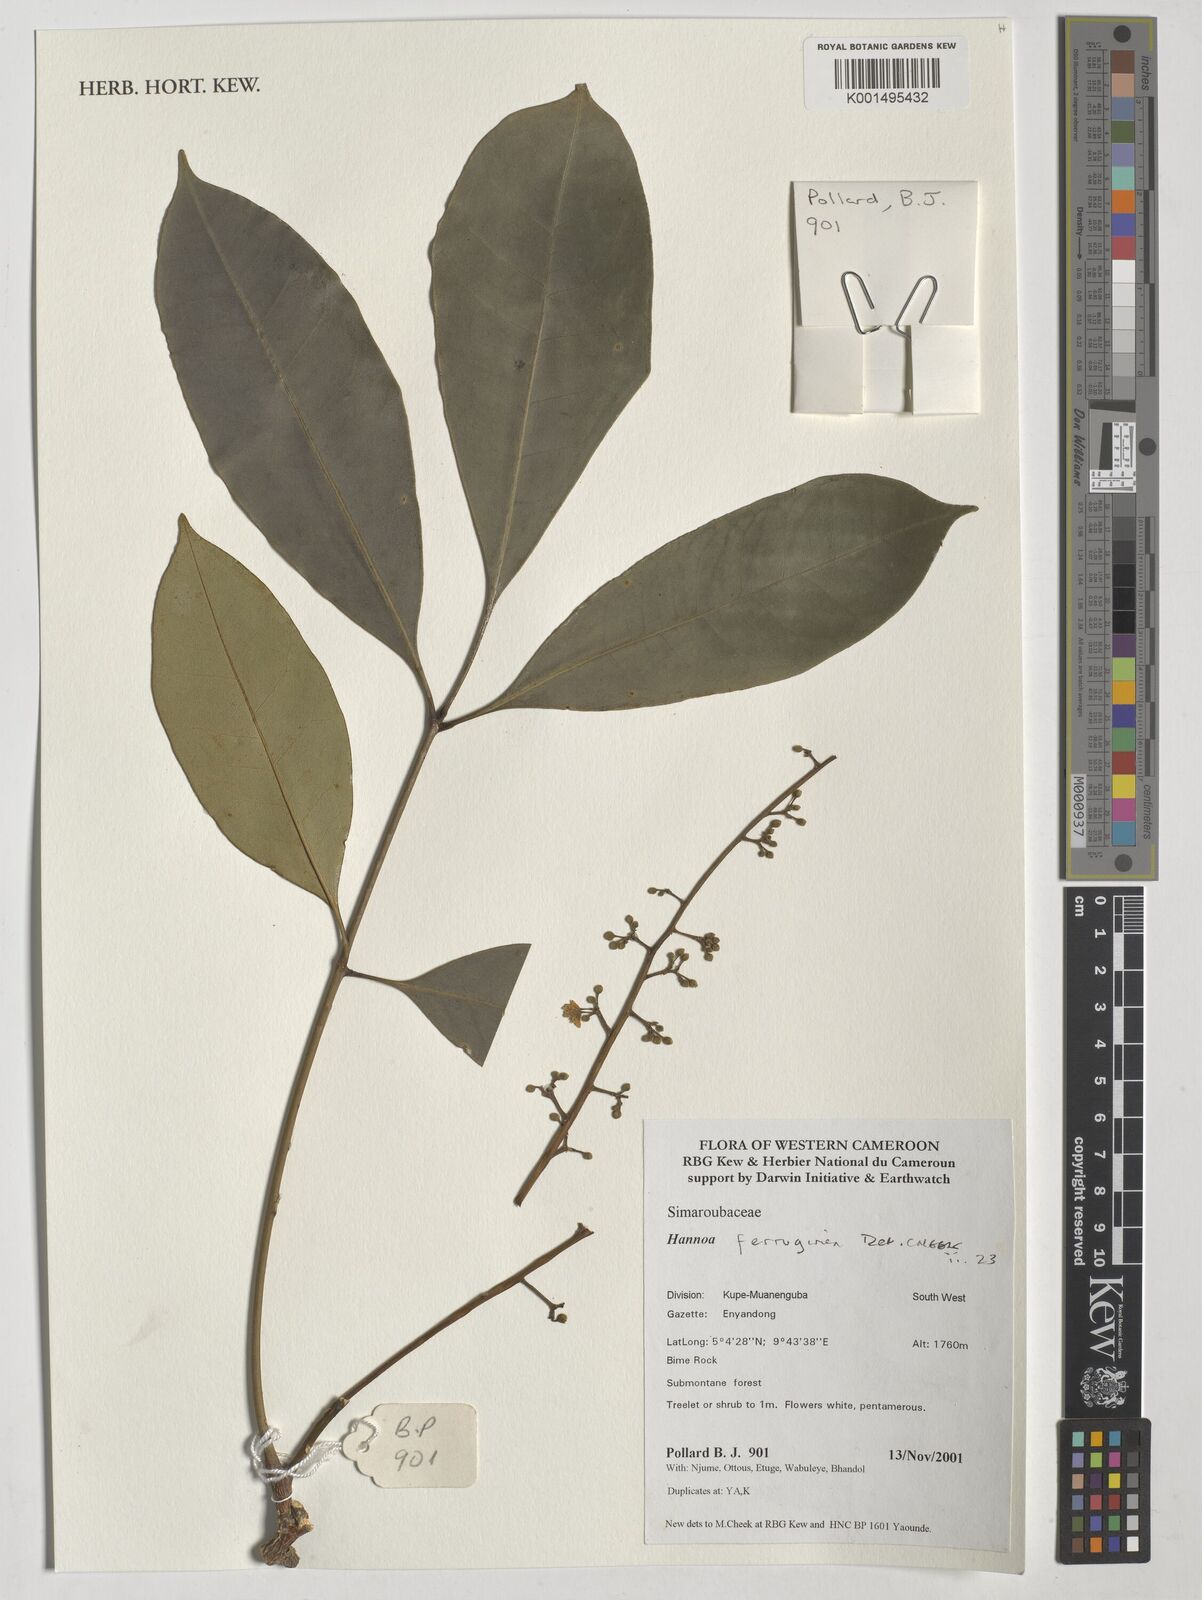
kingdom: Plantae
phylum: Tracheophyta
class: Magnoliopsida
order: Sapindales
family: Simaroubaceae
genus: Hannoa
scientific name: Hannoa ferruginea
